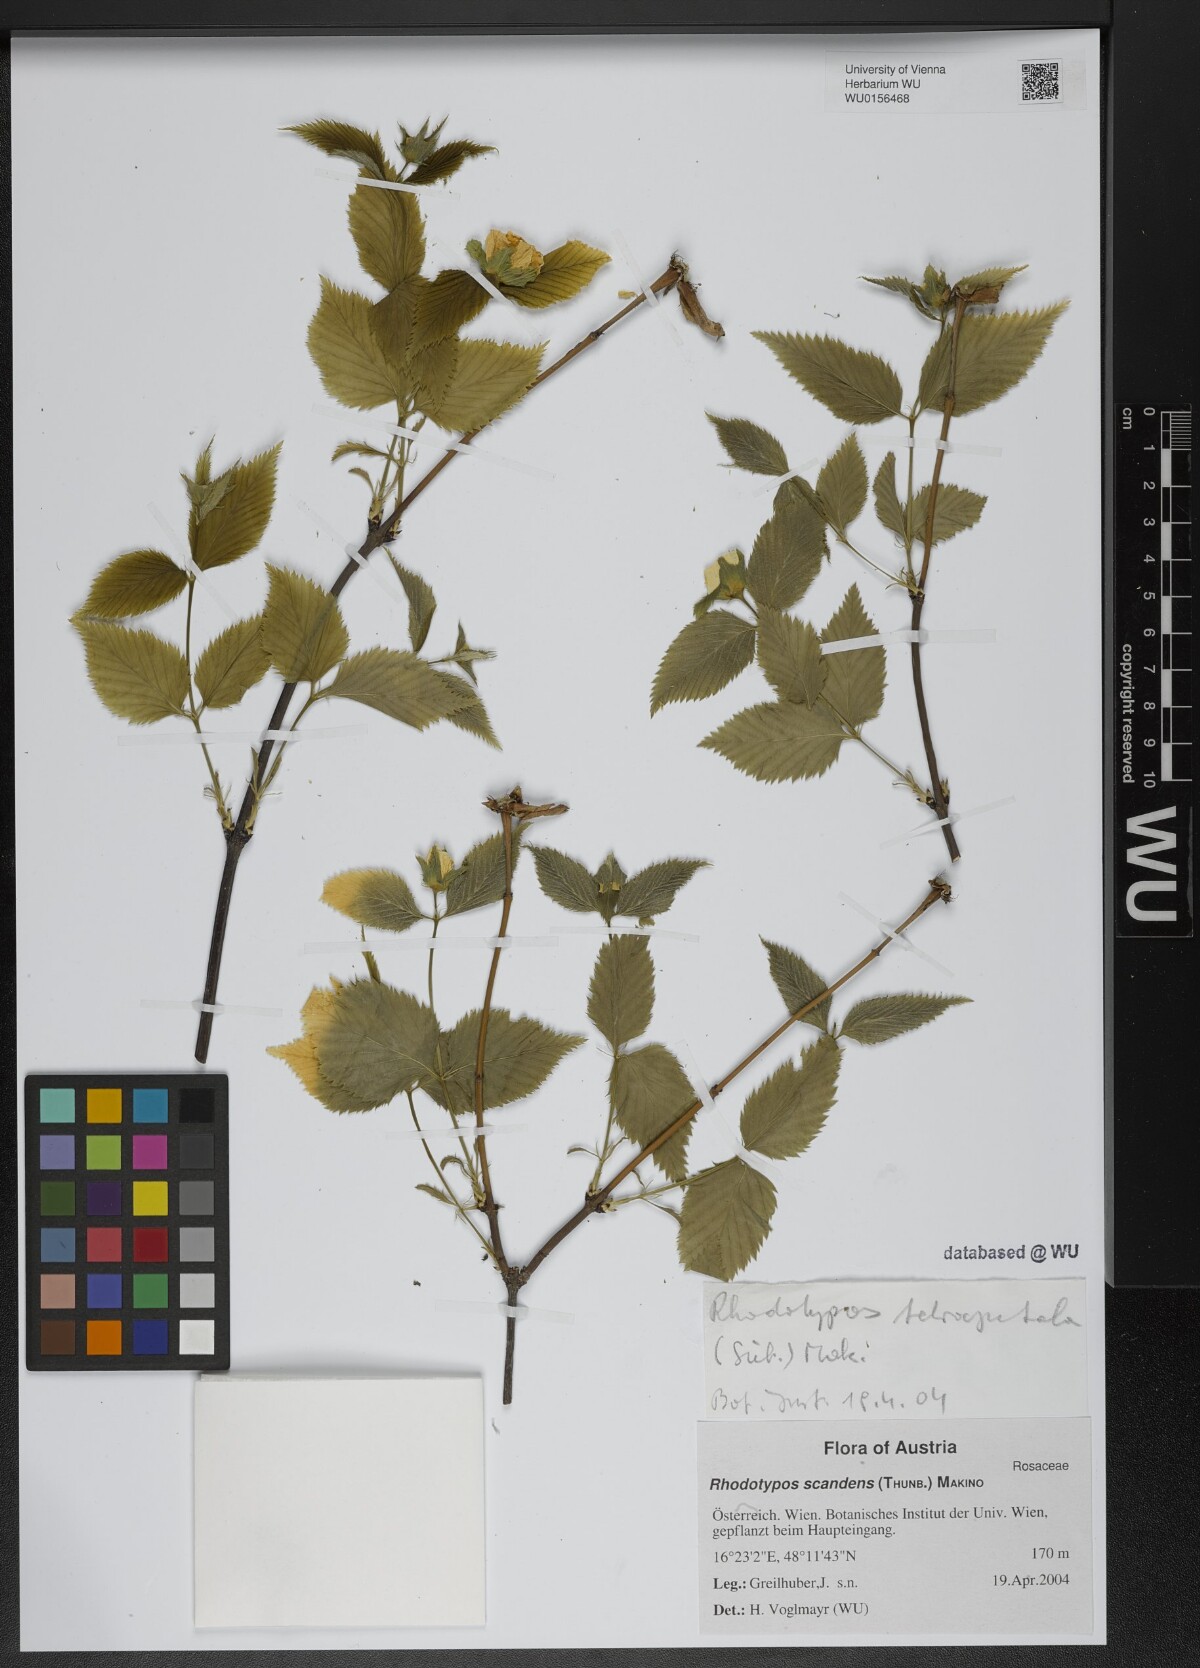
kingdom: Plantae
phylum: Tracheophyta
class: Magnoliopsida
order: Rosales
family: Rosaceae
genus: Rhodotypos
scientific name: Rhodotypos scandens
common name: Jetbead
